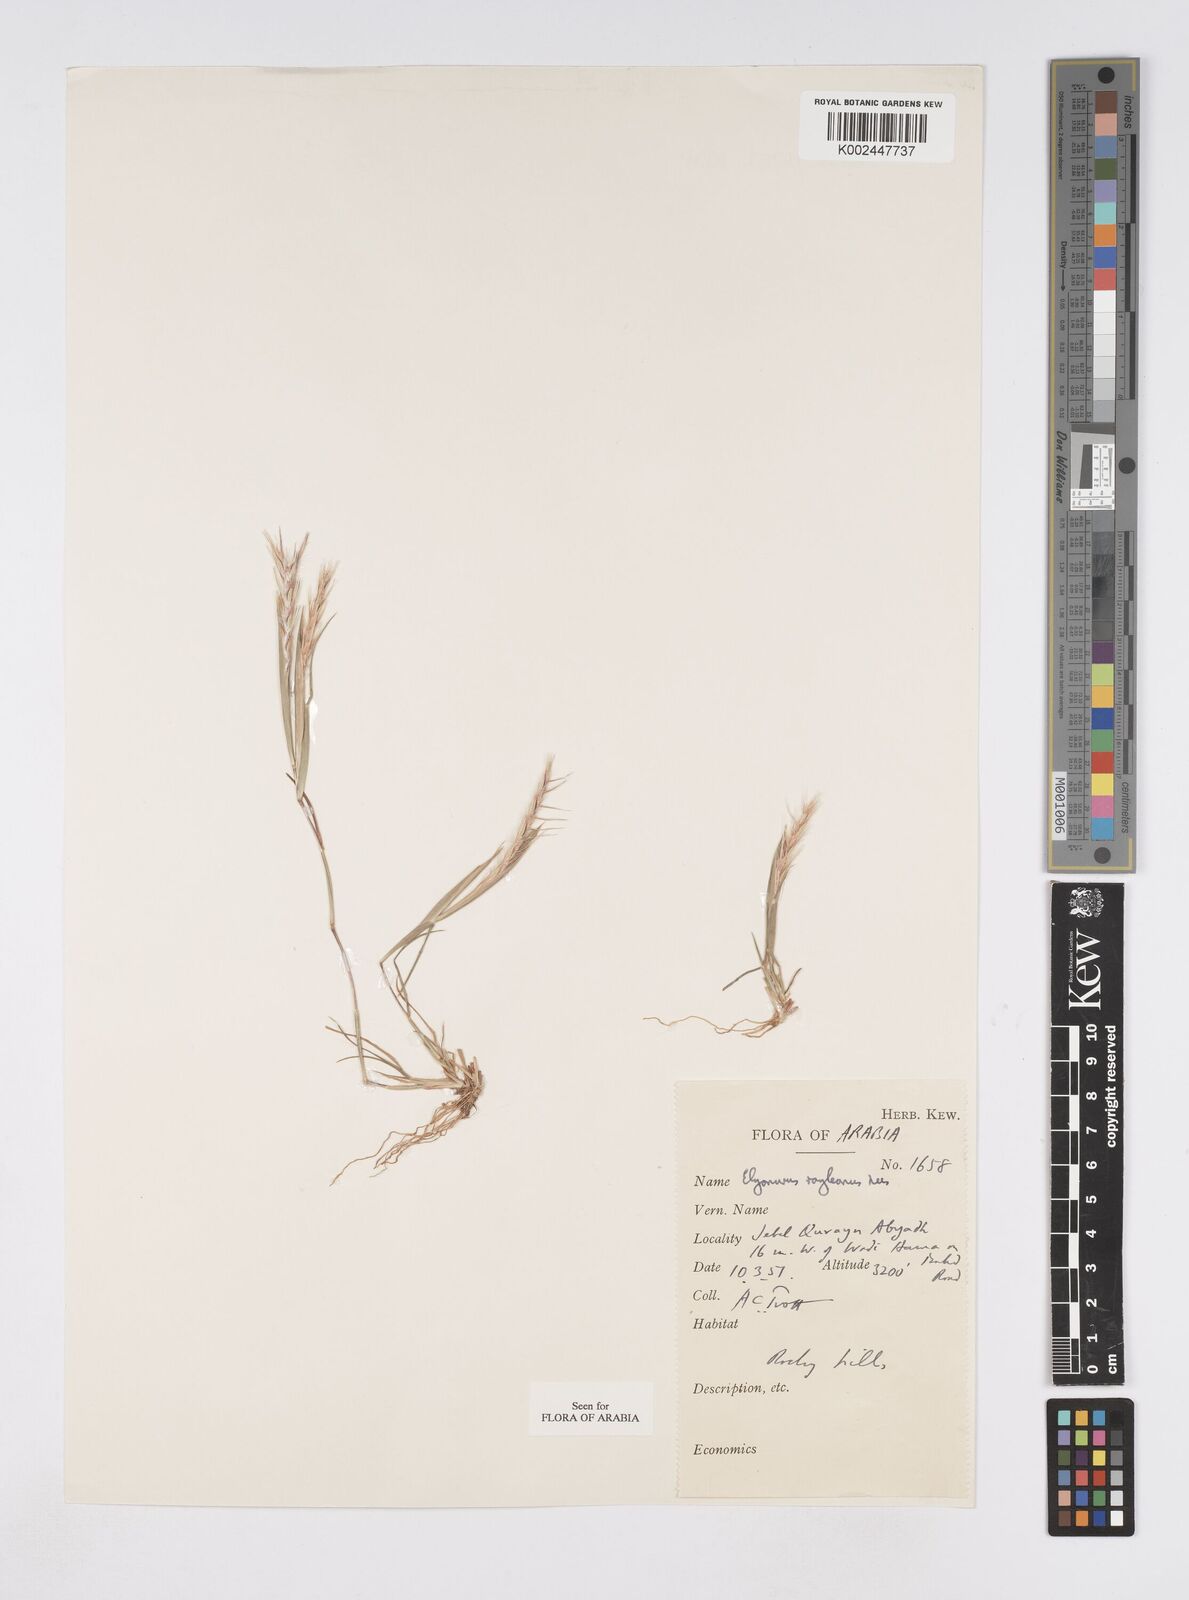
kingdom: Plantae
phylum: Tracheophyta
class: Liliopsida
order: Poales
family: Poaceae
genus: Elionurus
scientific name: Elionurus royleanus
